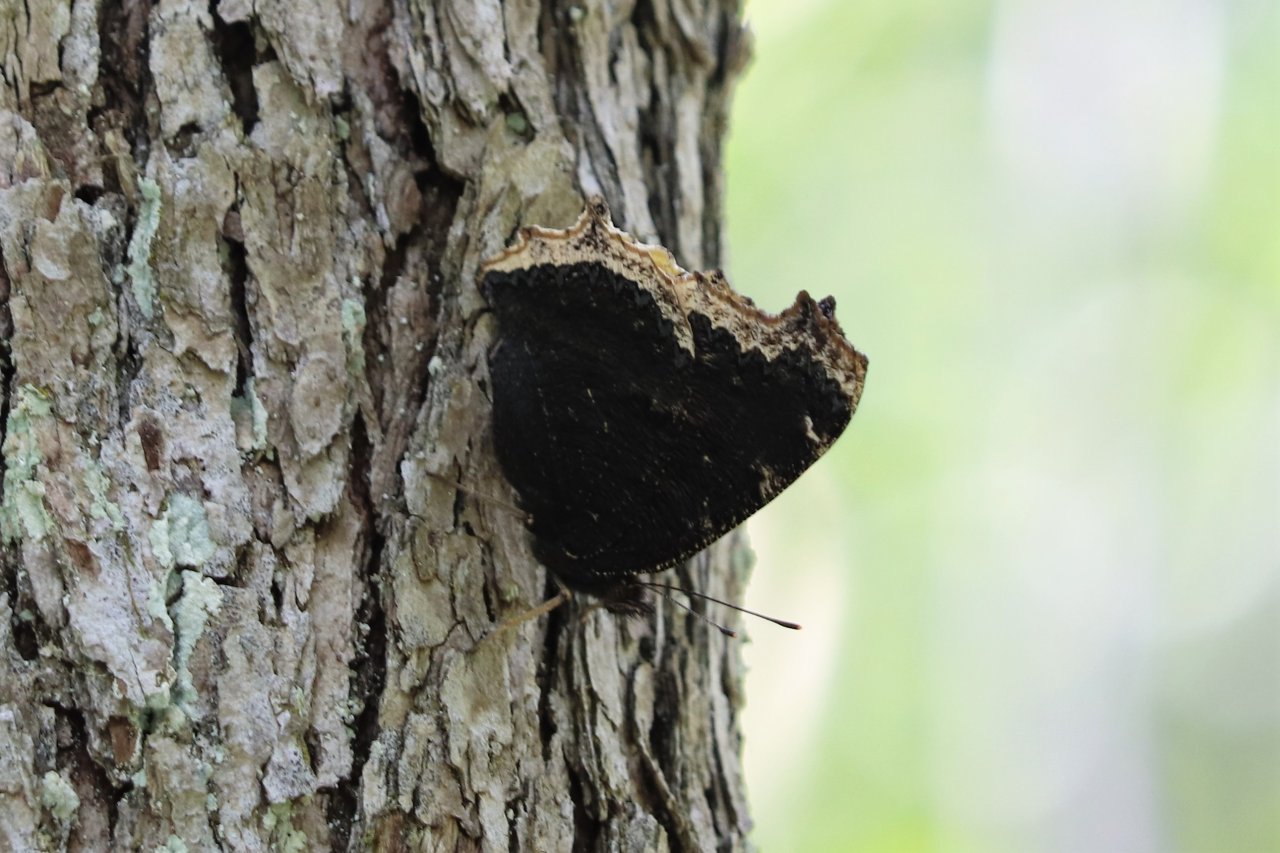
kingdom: Animalia
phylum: Arthropoda
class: Insecta
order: Lepidoptera
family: Nymphalidae
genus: Nymphalis
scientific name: Nymphalis antiopa
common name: Mourning Cloak
